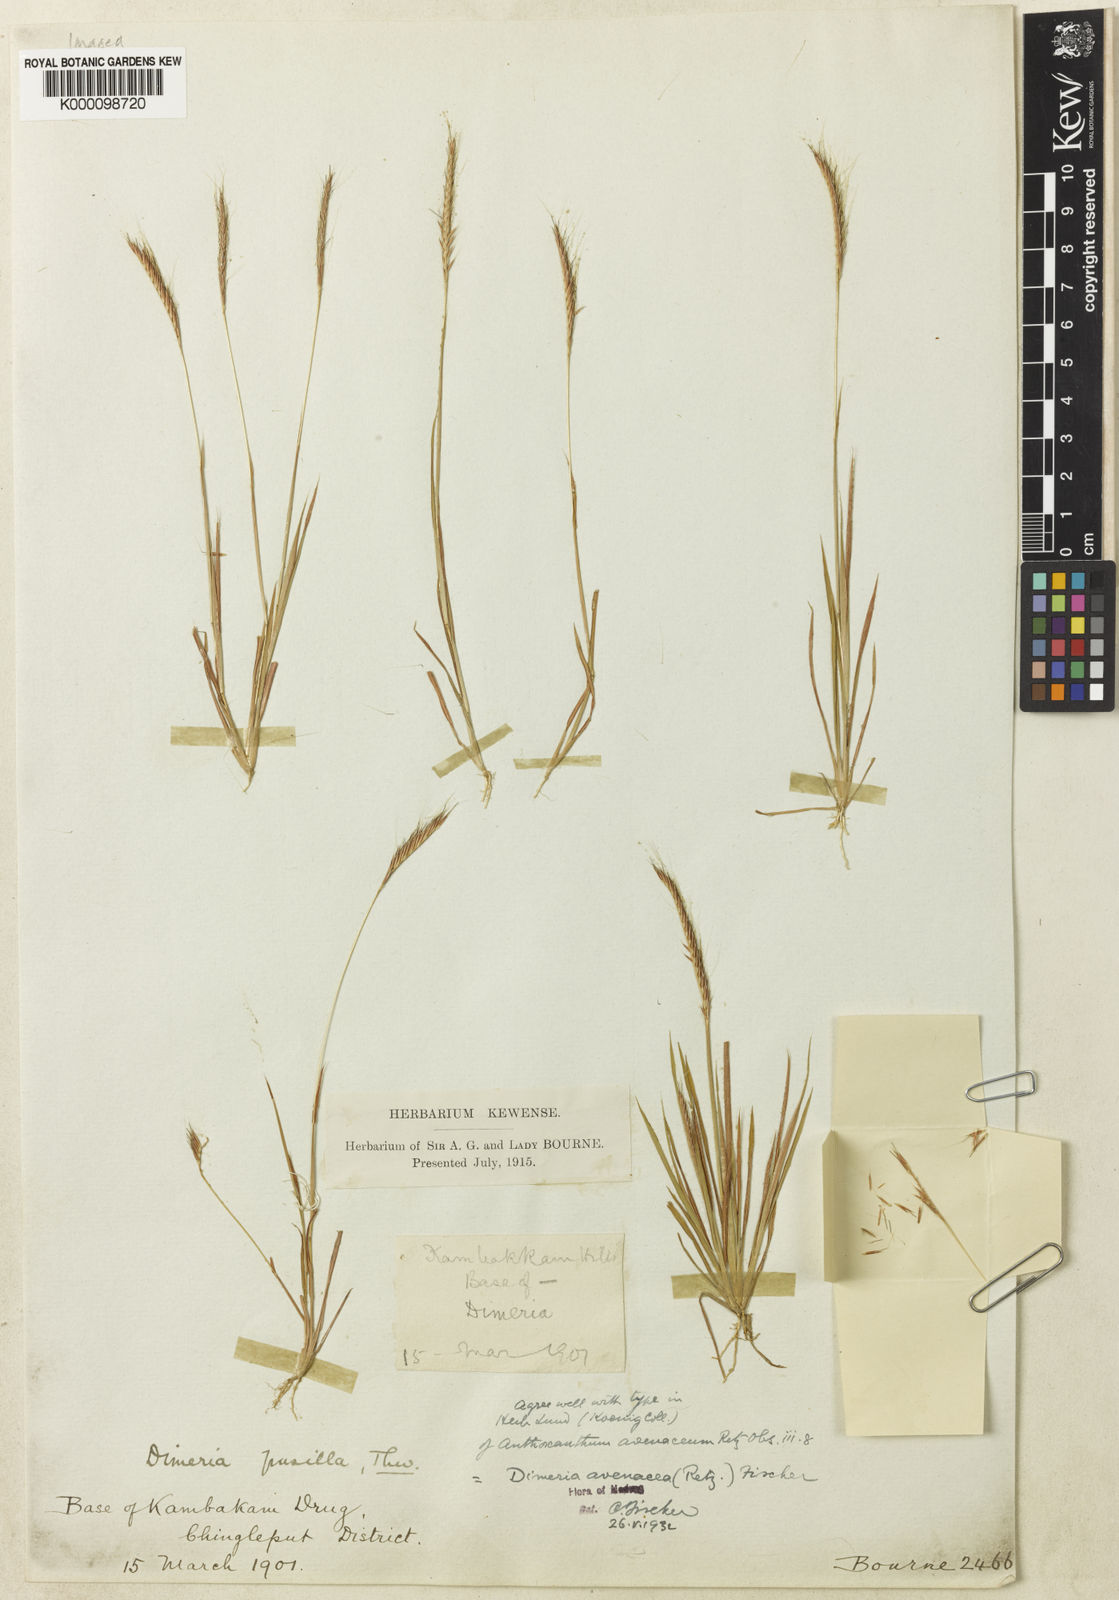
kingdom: Plantae
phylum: Tracheophyta
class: Liliopsida
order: Poales
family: Poaceae
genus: Dimeria
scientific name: Dimeria avenacea
